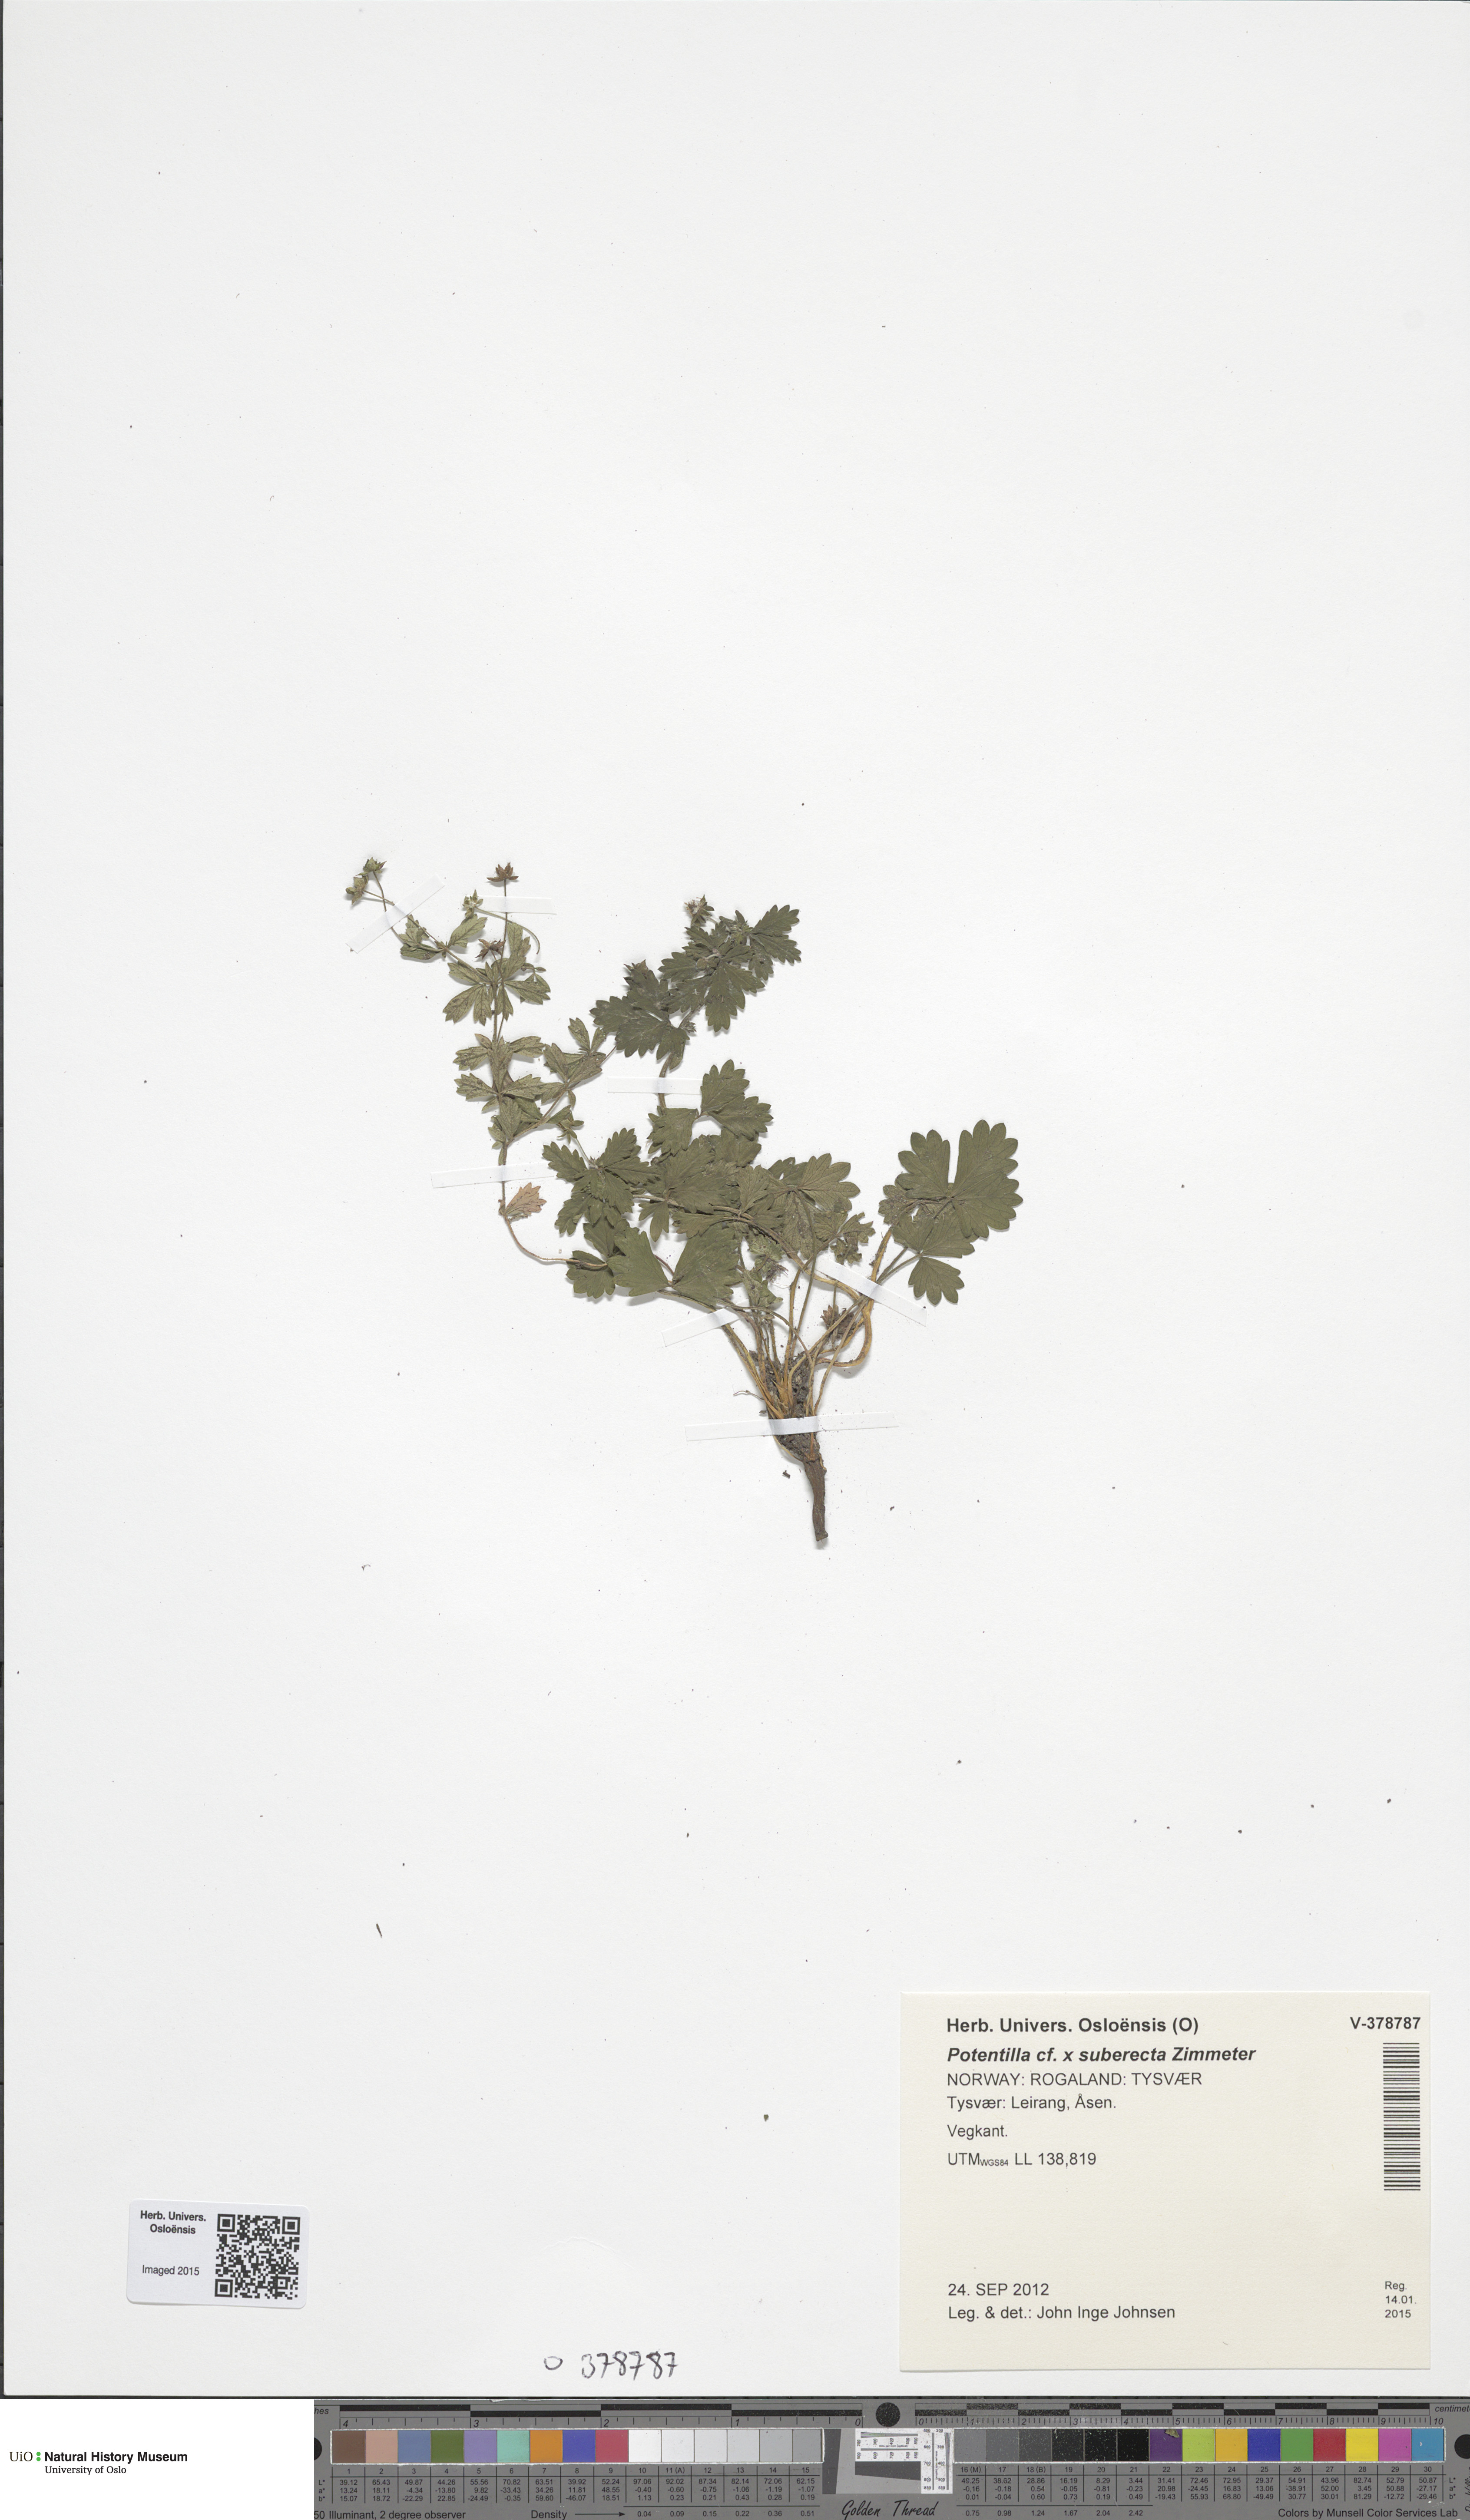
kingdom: Plantae
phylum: Tracheophyta
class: Magnoliopsida
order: Rosales
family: Rosaceae
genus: Potentilla
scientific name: Potentilla suberecta
